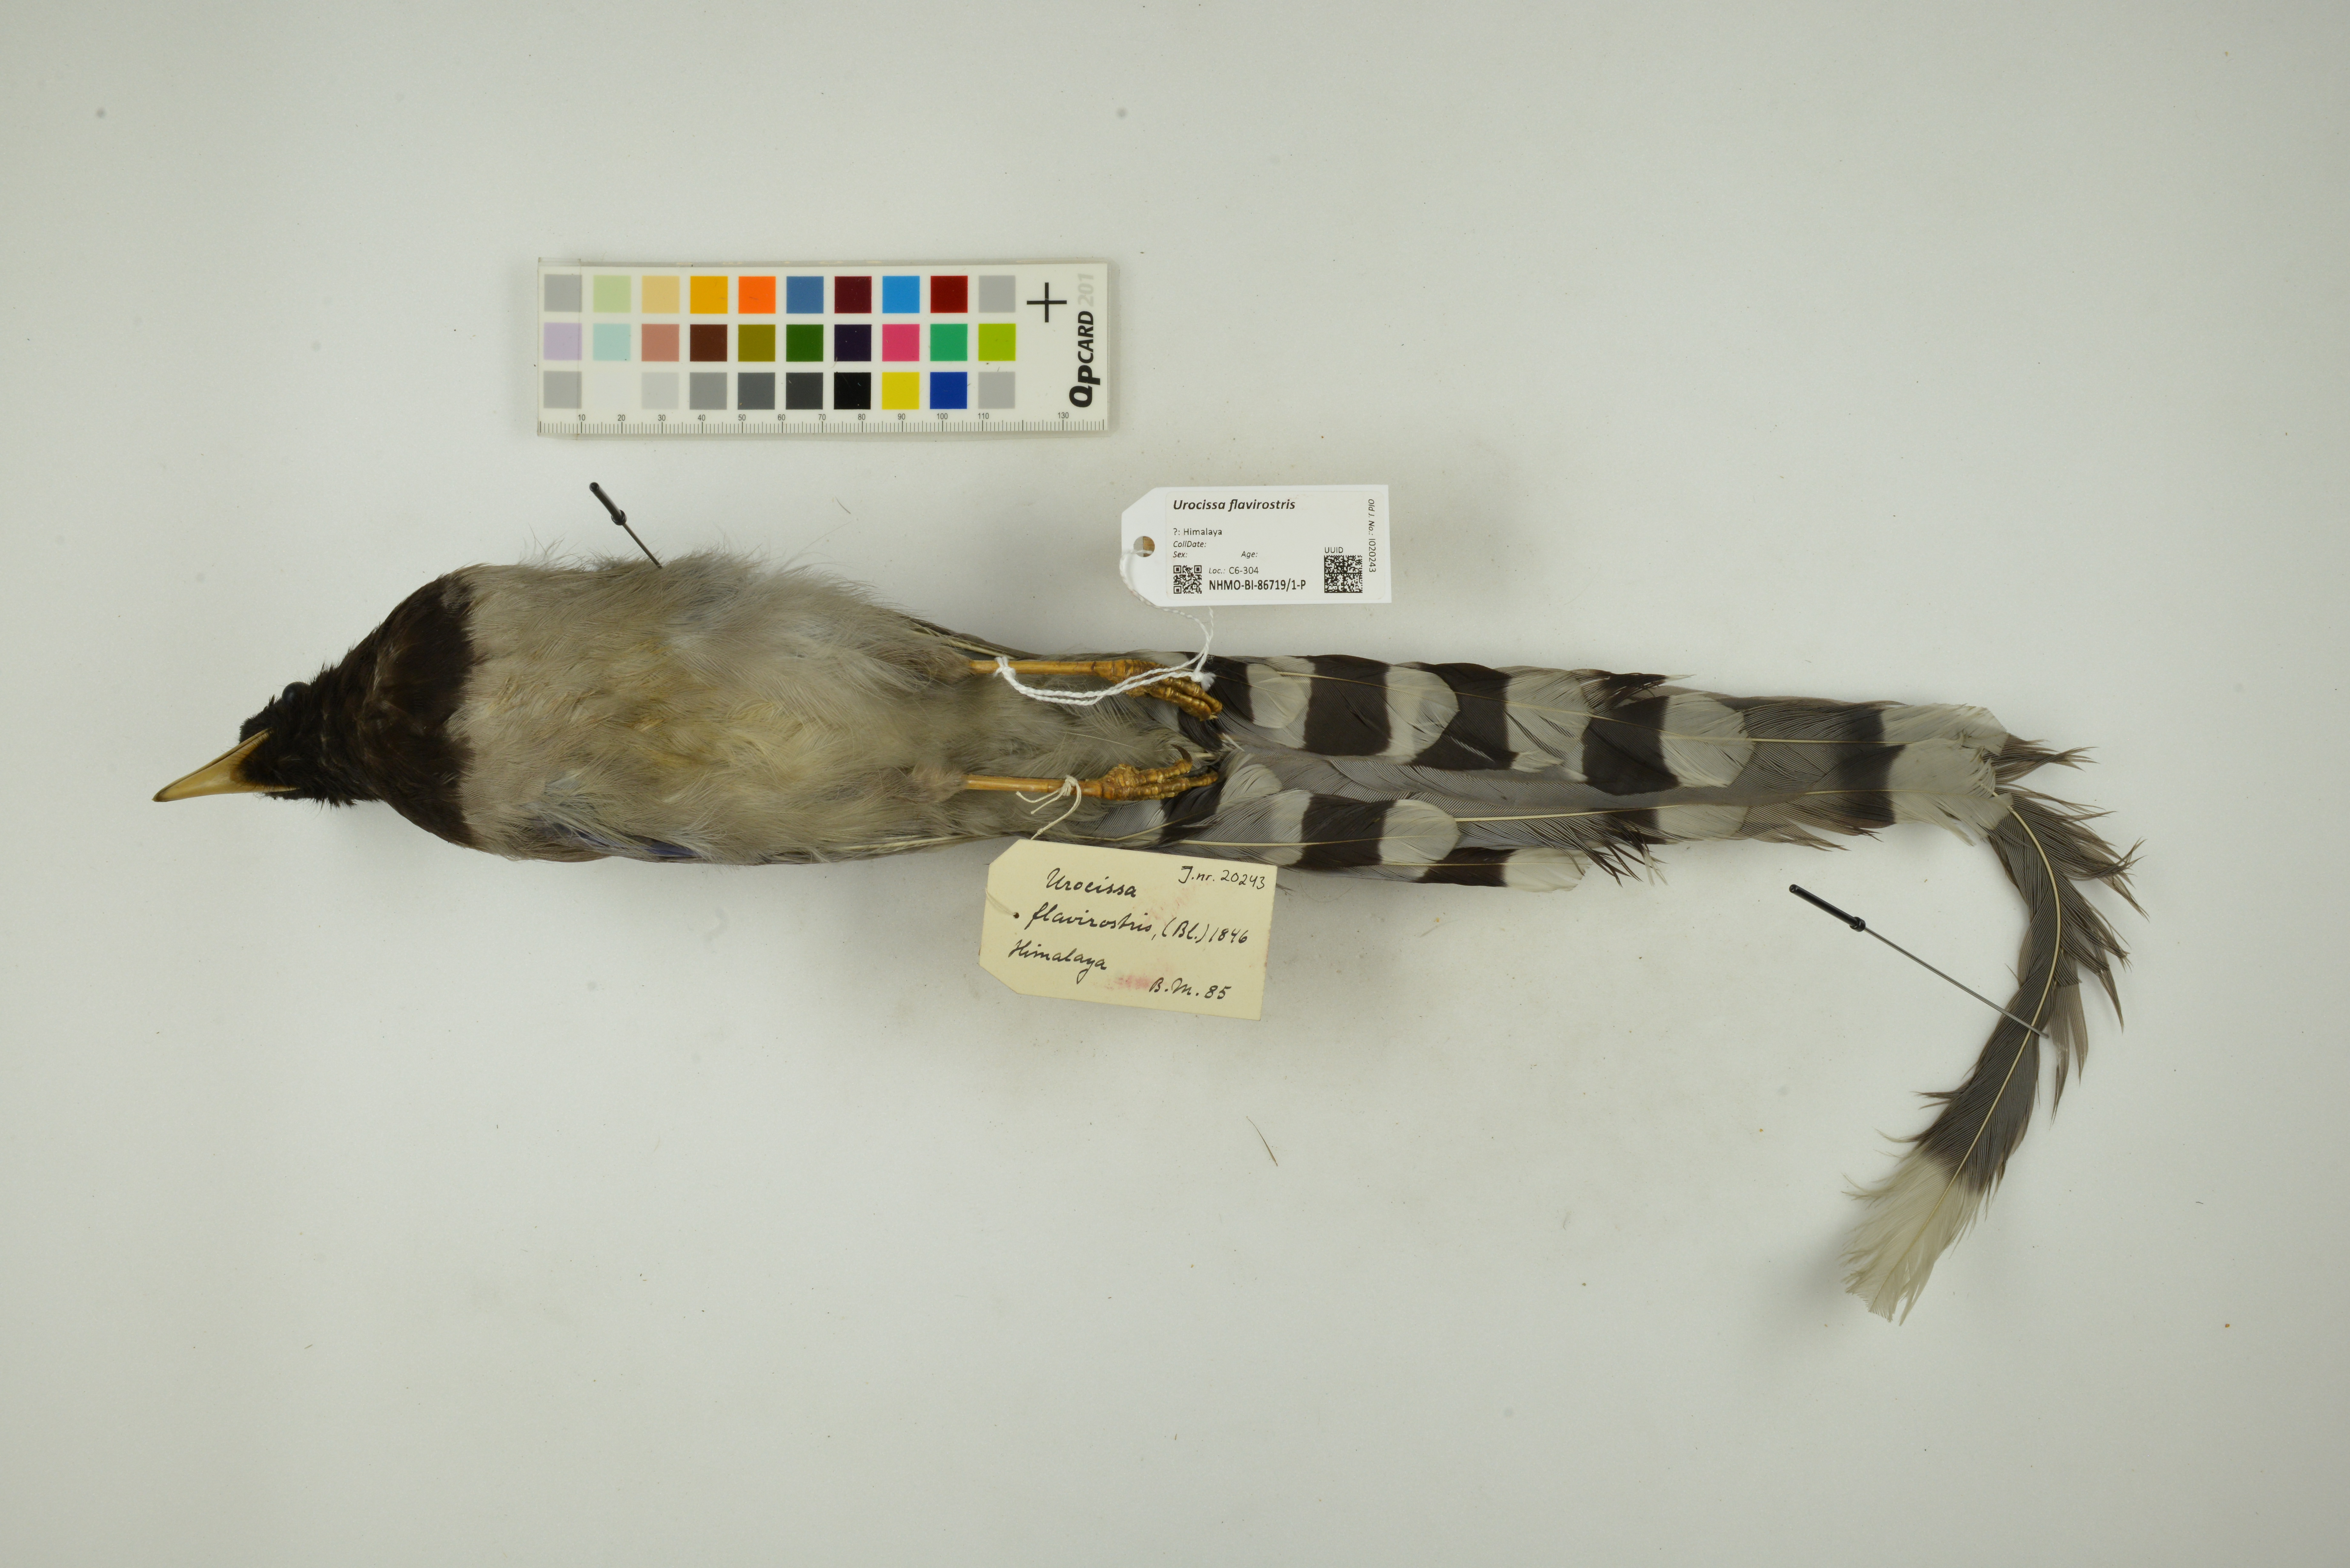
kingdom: Animalia
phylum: Chordata
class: Aves
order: Passeriformes
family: Corvidae
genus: Urocissa
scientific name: Urocissa flavirostris
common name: Yellow-billed blue magpie
